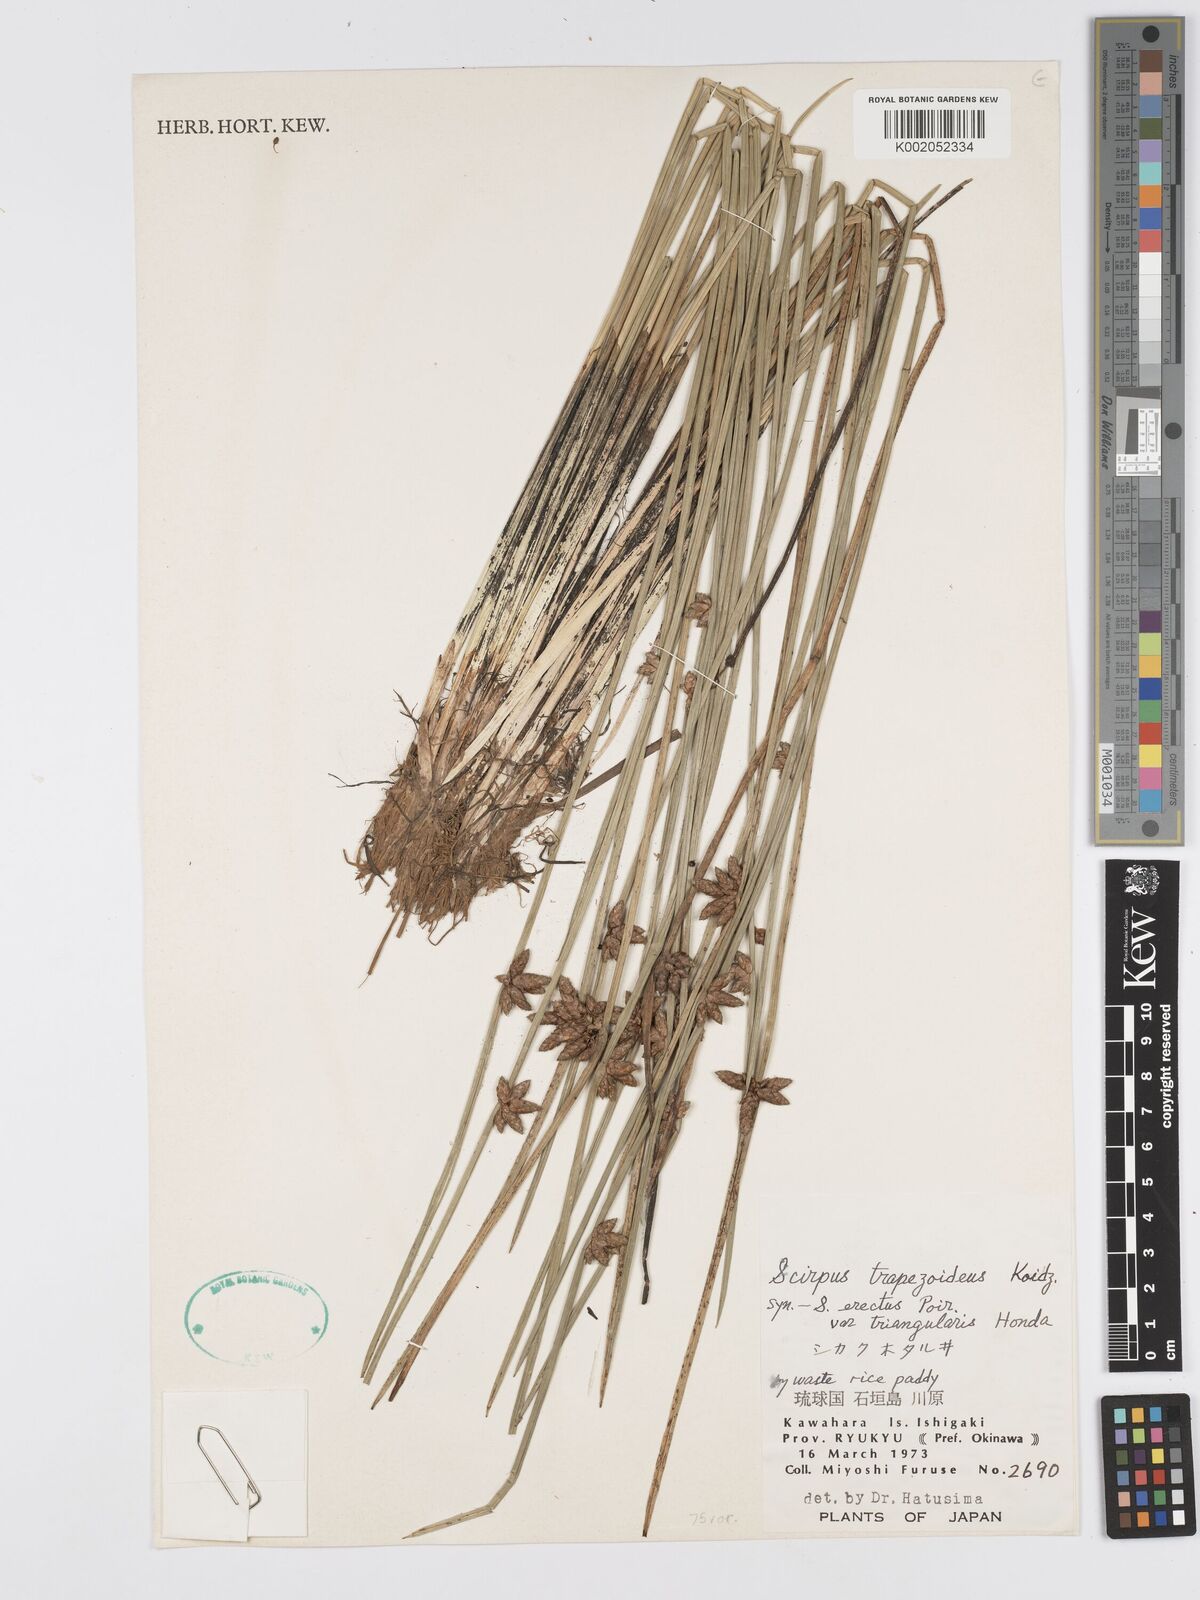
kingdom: Plantae
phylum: Tracheophyta
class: Liliopsida
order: Poales
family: Cyperaceae
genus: Scirpus
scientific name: Scirpus
